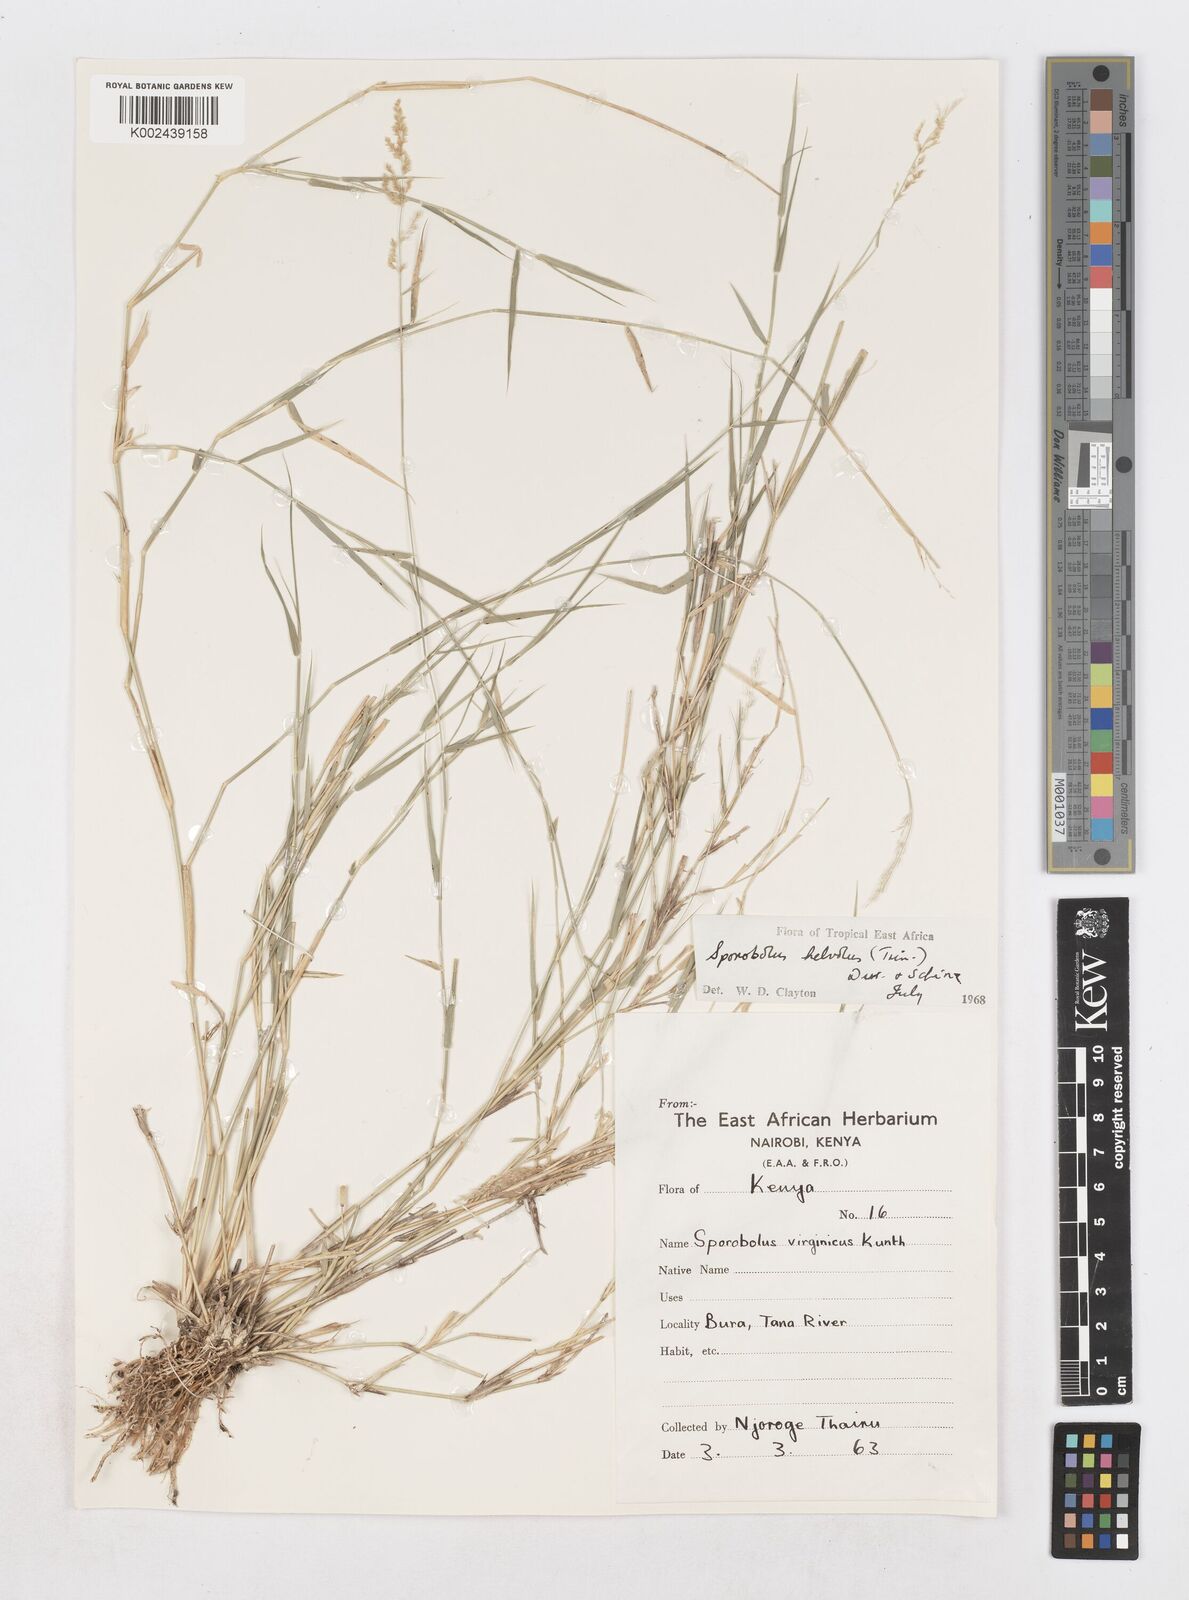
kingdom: Plantae
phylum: Tracheophyta
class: Liliopsida
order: Poales
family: Poaceae
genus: Sporobolus
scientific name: Sporobolus helvolus
